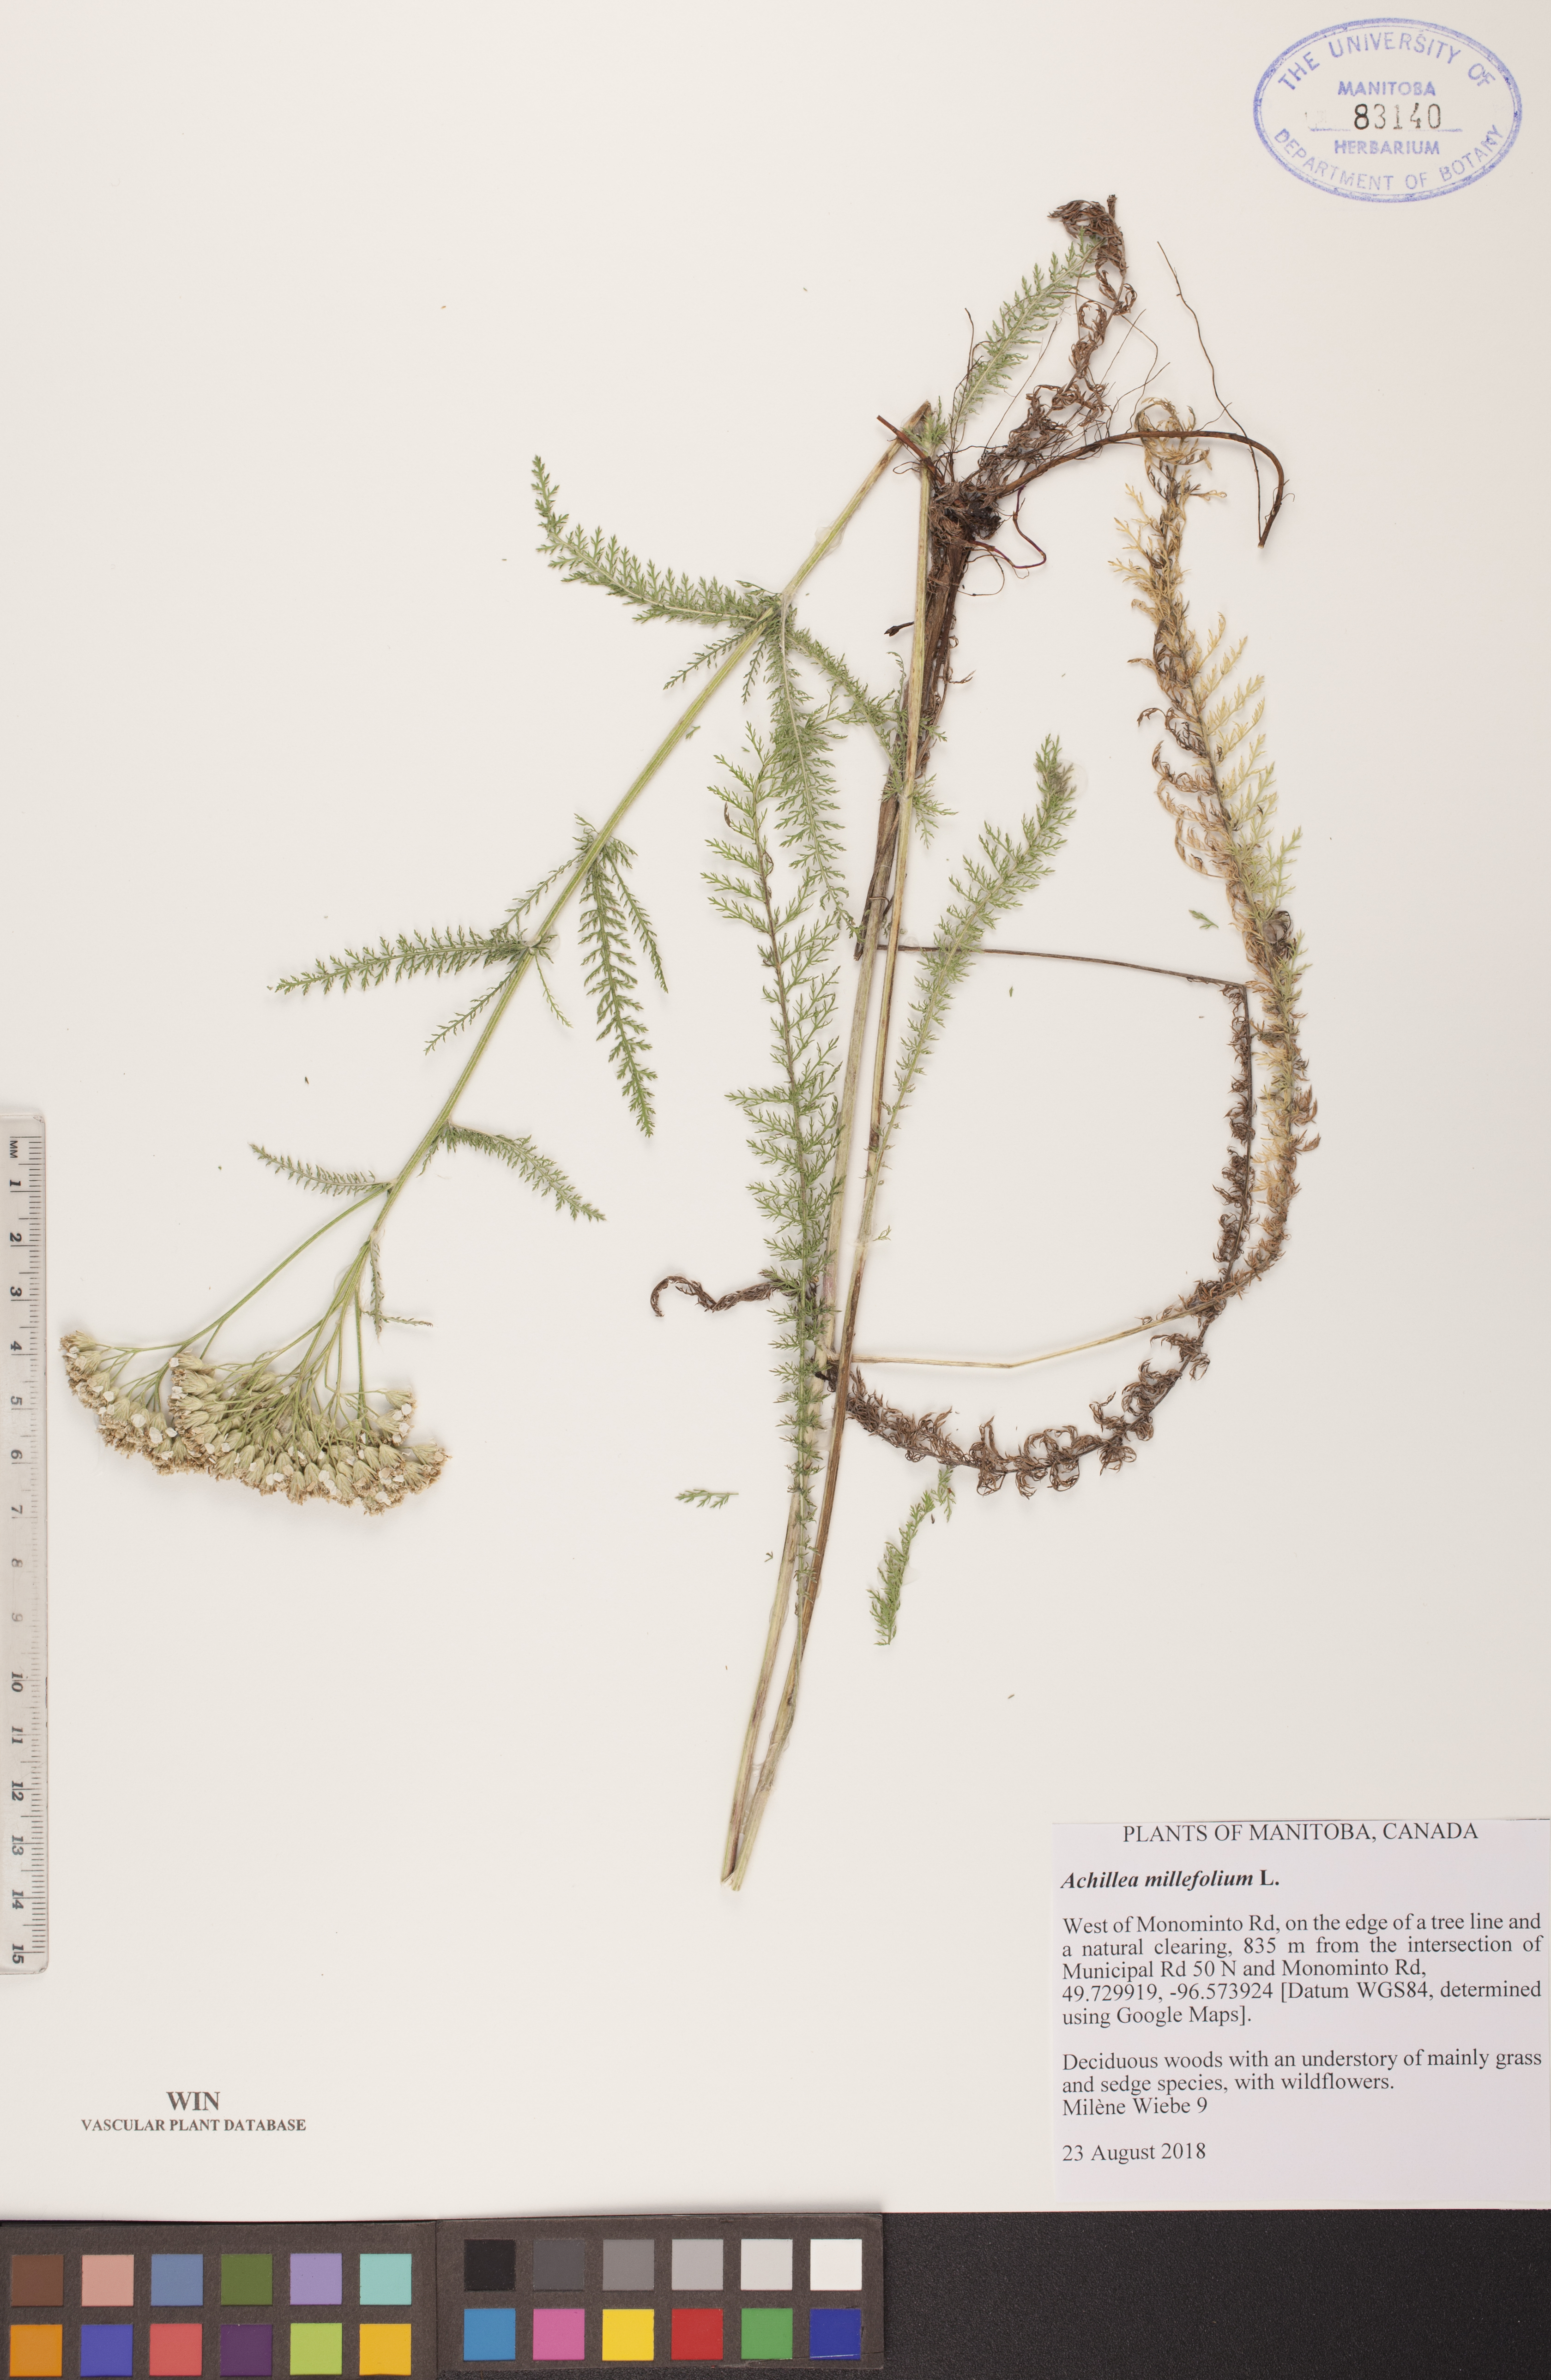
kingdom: Plantae
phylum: Tracheophyta
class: Magnoliopsida
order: Asterales
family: Asteraceae
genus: Achillea
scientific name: Achillea millefolium
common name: Yarrow
